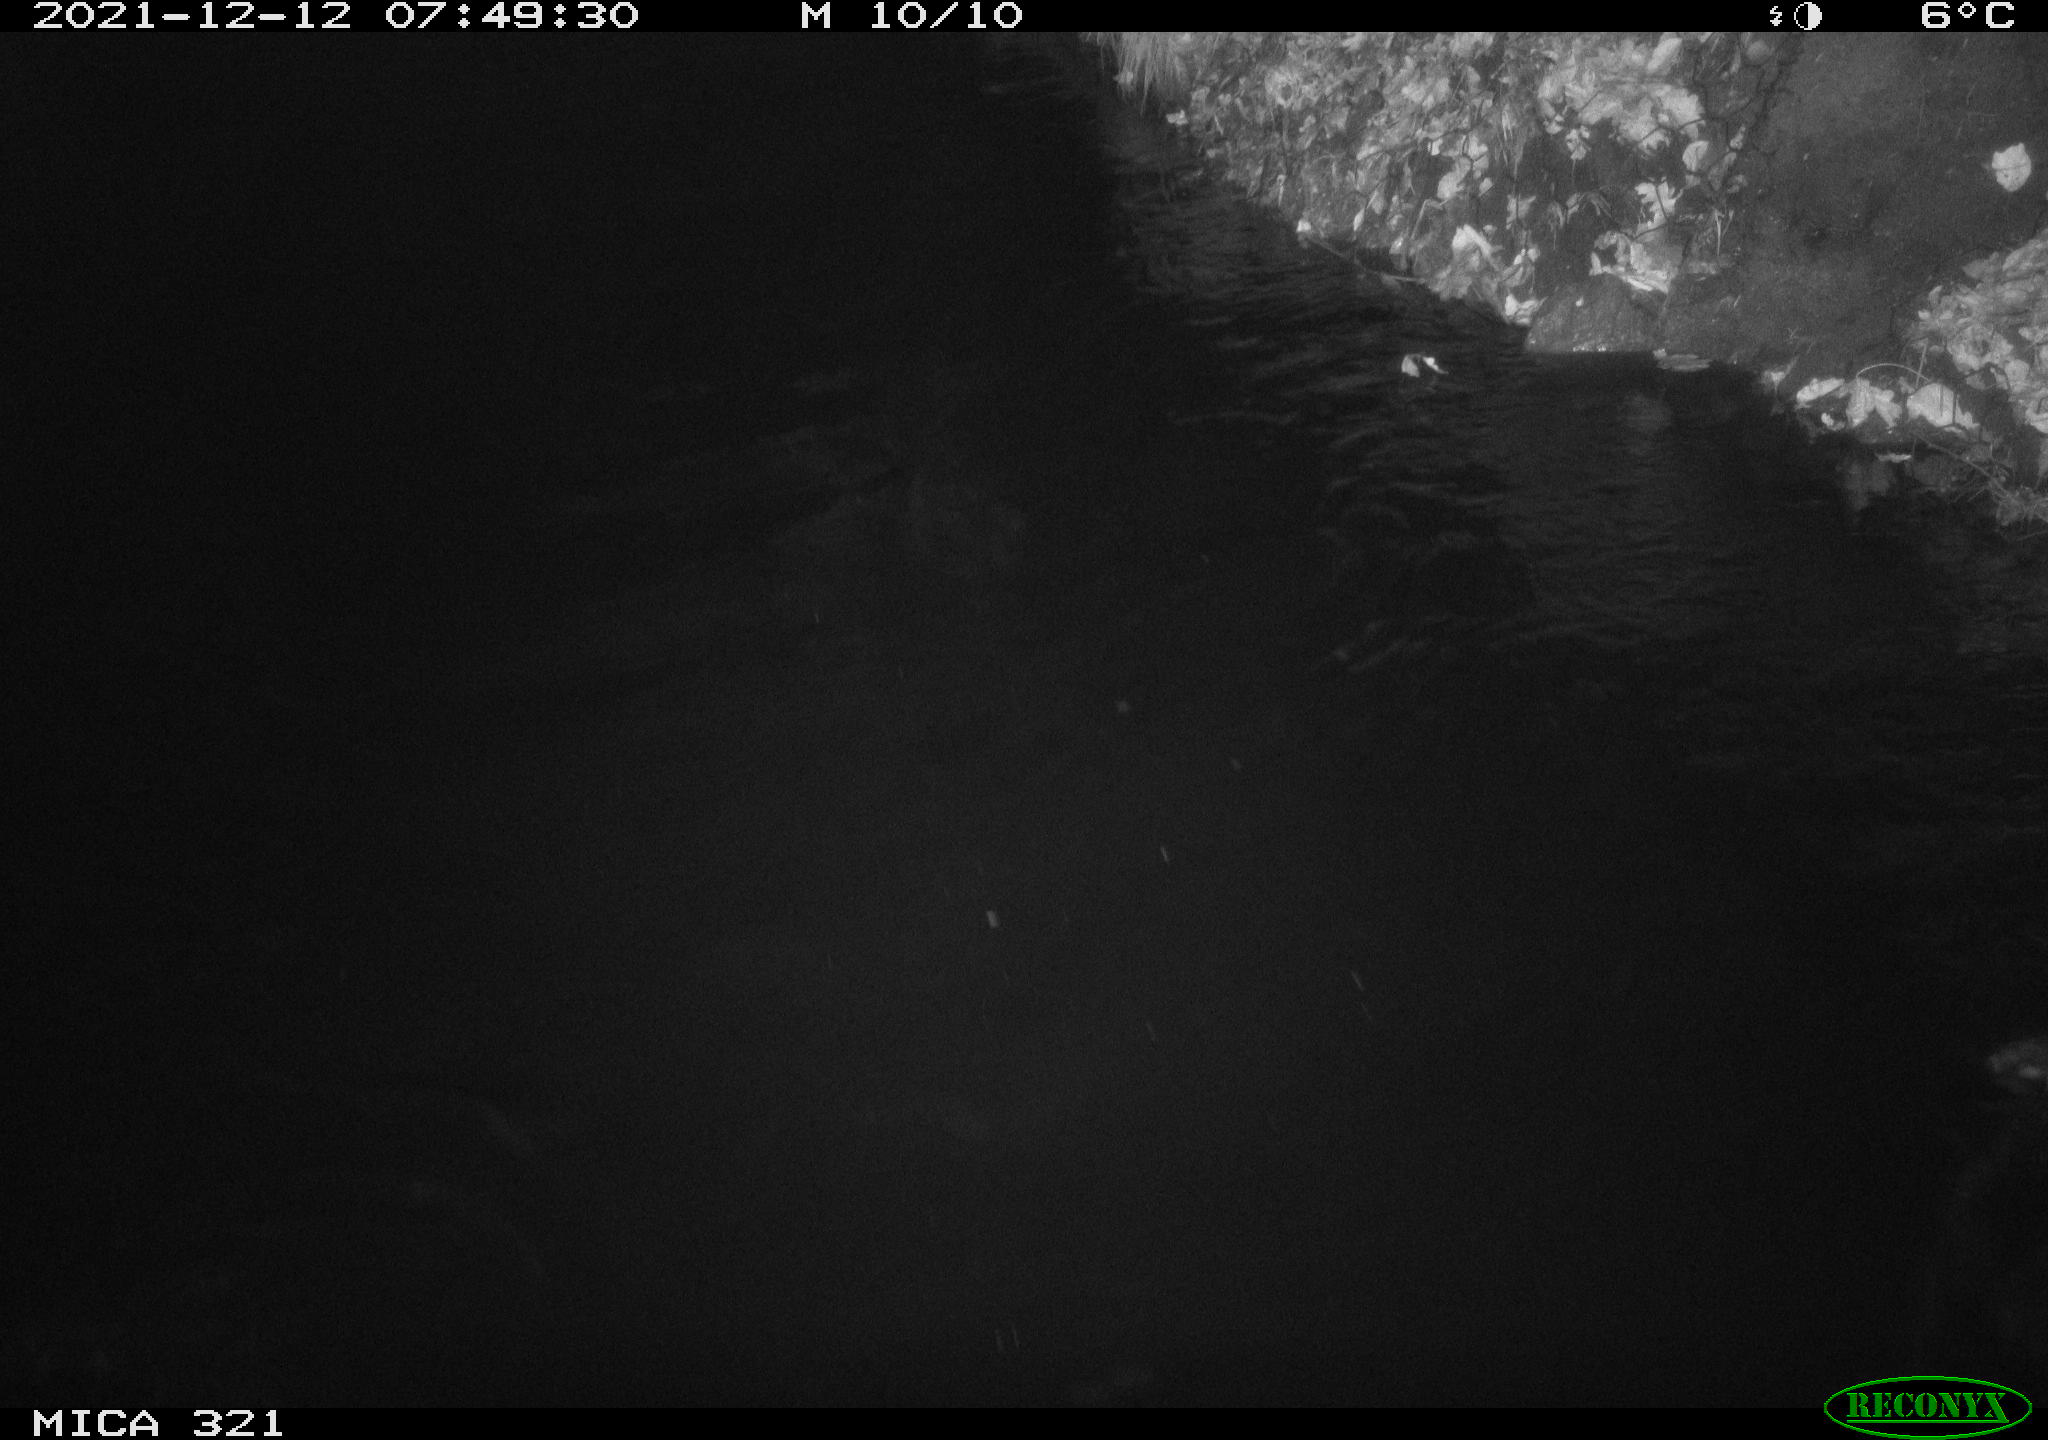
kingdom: Animalia
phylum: Chordata
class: Aves
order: Anseriformes
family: Anatidae
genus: Anas
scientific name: Anas
